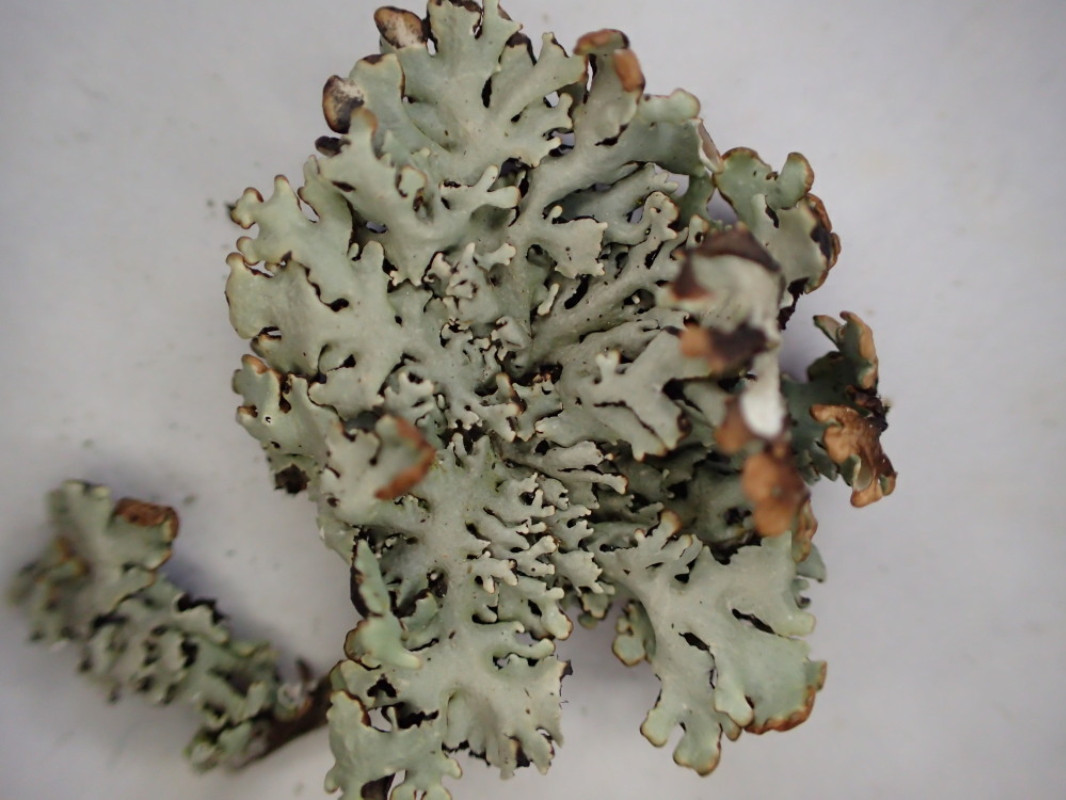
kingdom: Fungi
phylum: Ascomycota
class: Lecanoromycetes
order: Lecanorales
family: Parmeliaceae
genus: Hypogymnia
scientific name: Hypogymnia physodes
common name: almindelig kvistlav
